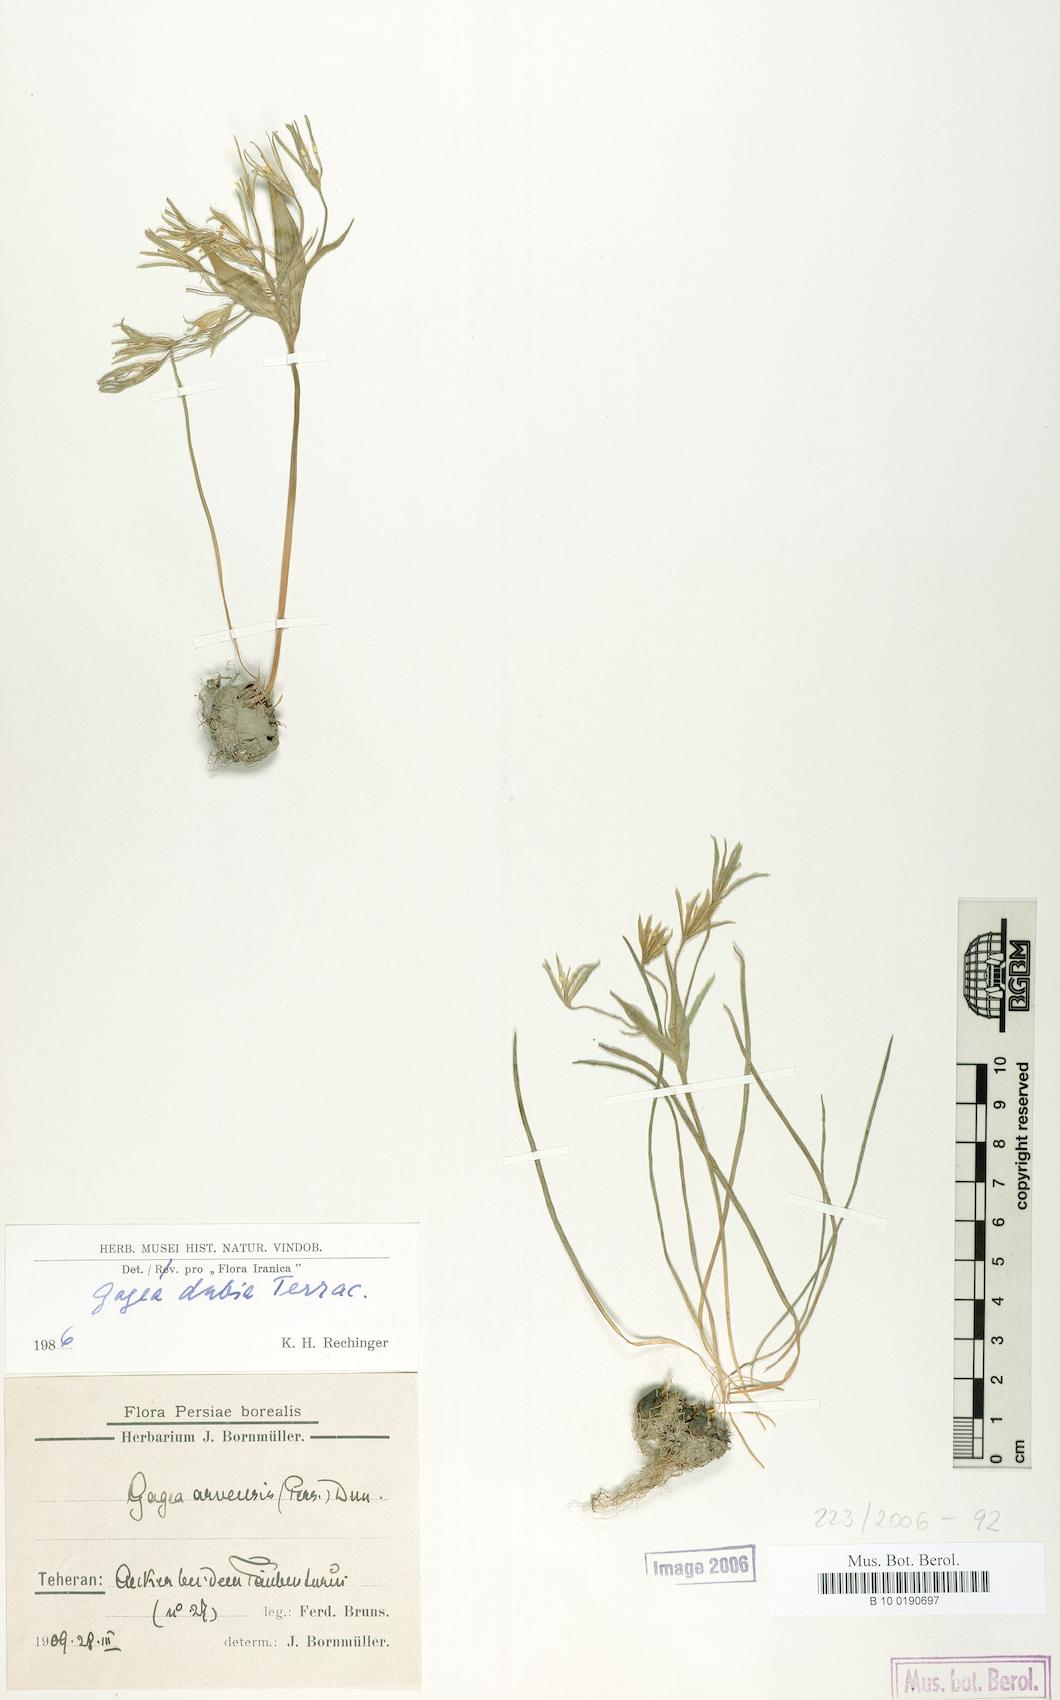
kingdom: Plantae
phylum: Tracheophyta
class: Liliopsida
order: Liliales
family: Liliaceae
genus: Gagea
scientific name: Gagea dubia
